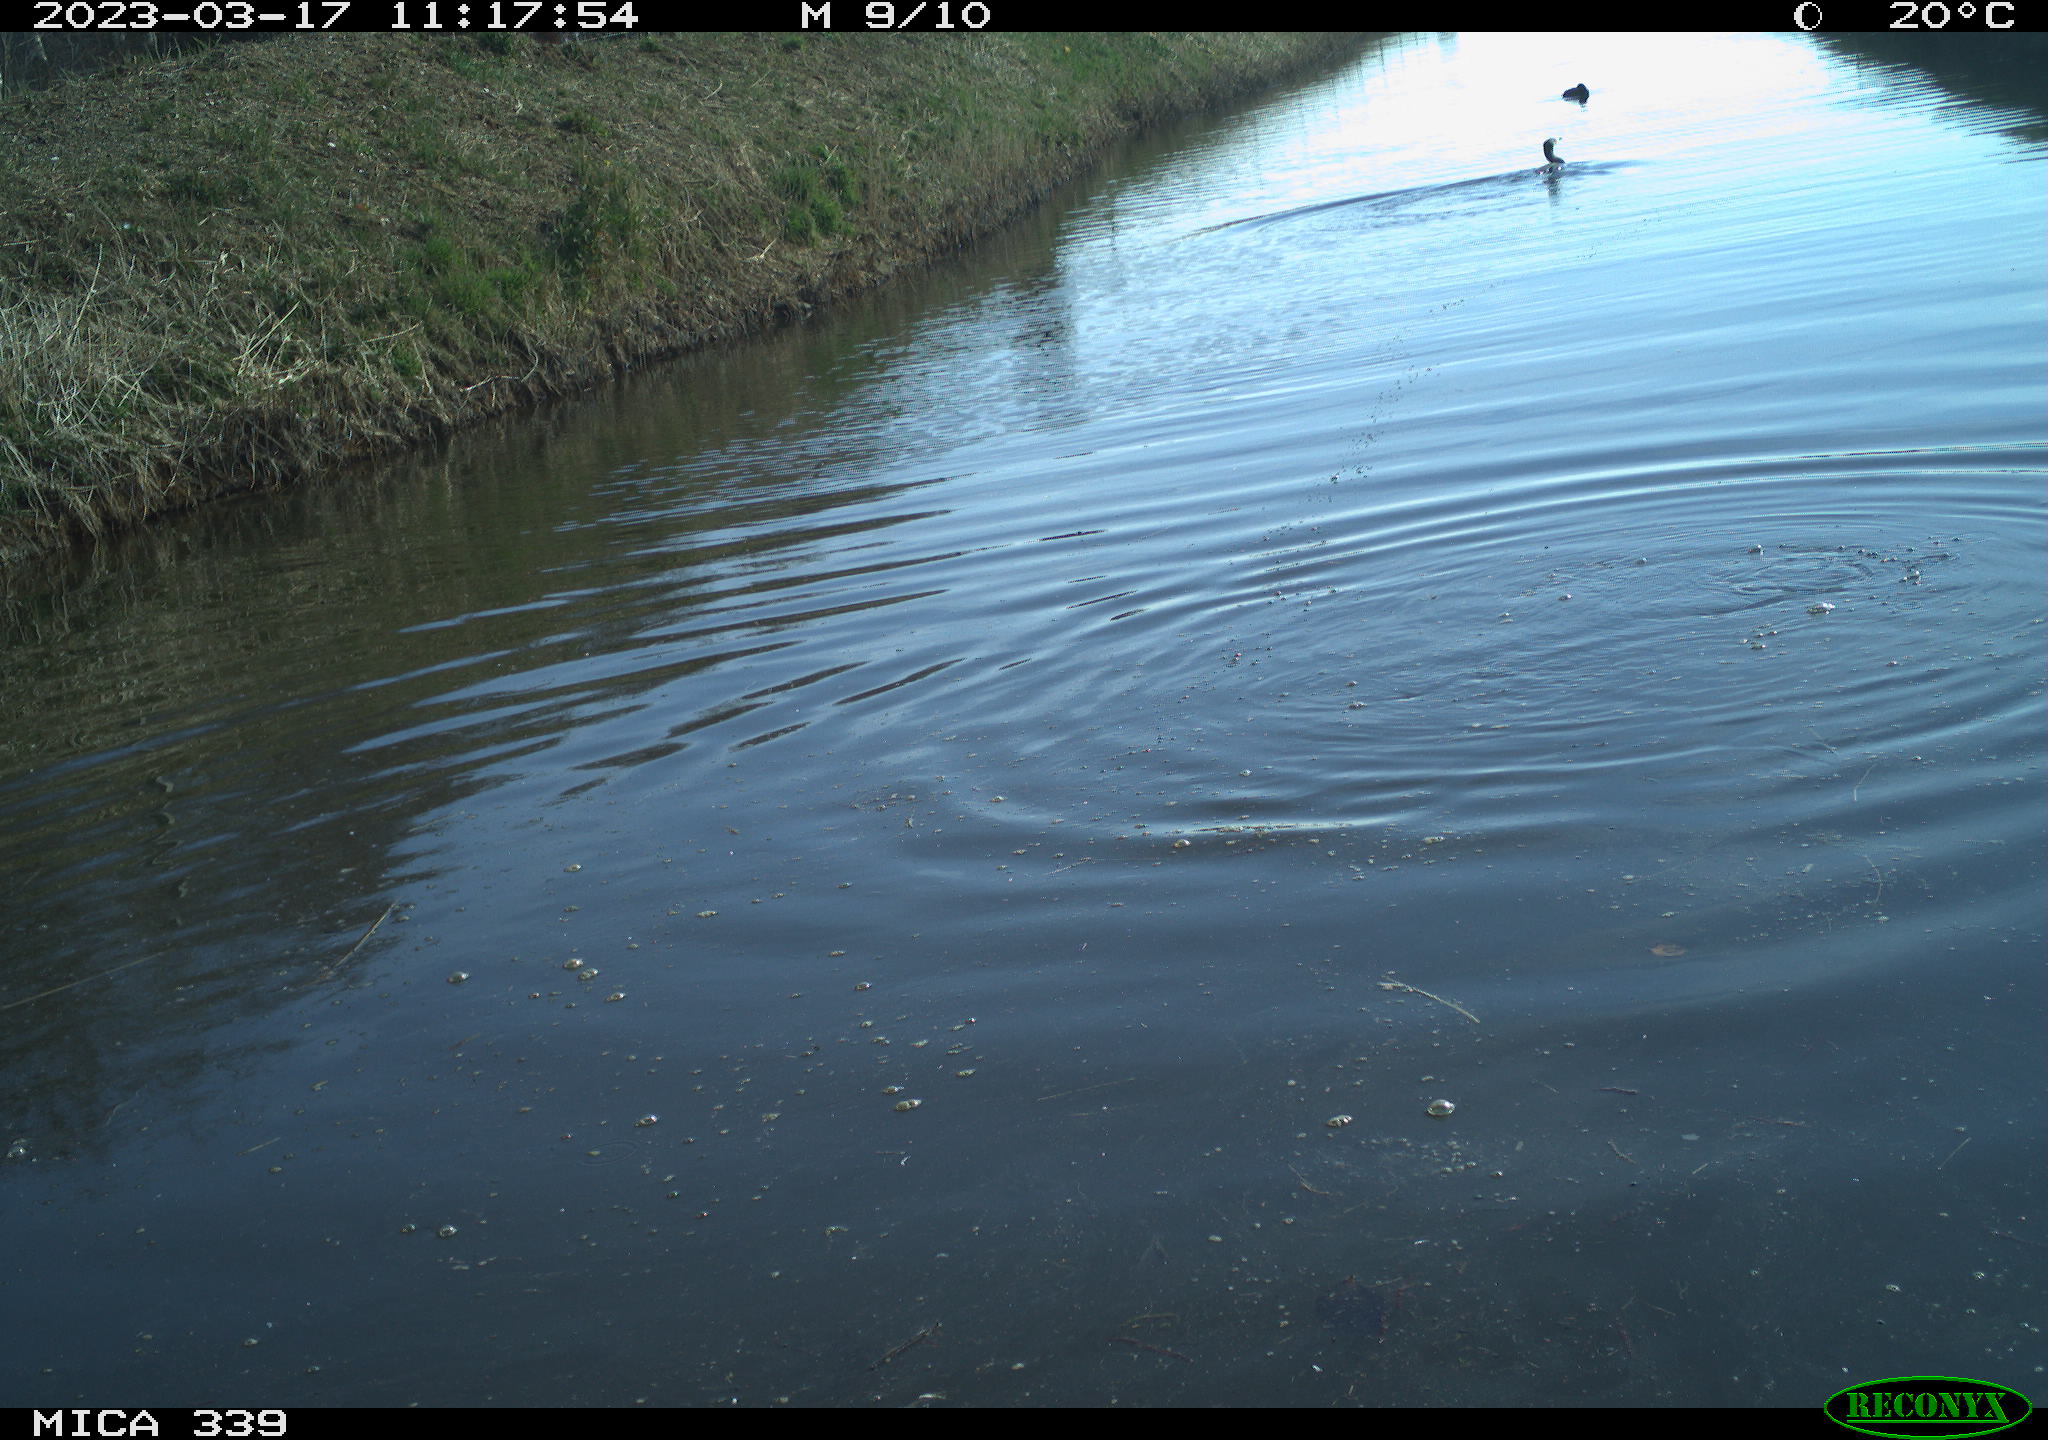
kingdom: Animalia
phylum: Chordata
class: Aves
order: Suliformes
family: Phalacrocoracidae
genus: Phalacrocorax
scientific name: Phalacrocorax carbo
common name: Great cormorant
